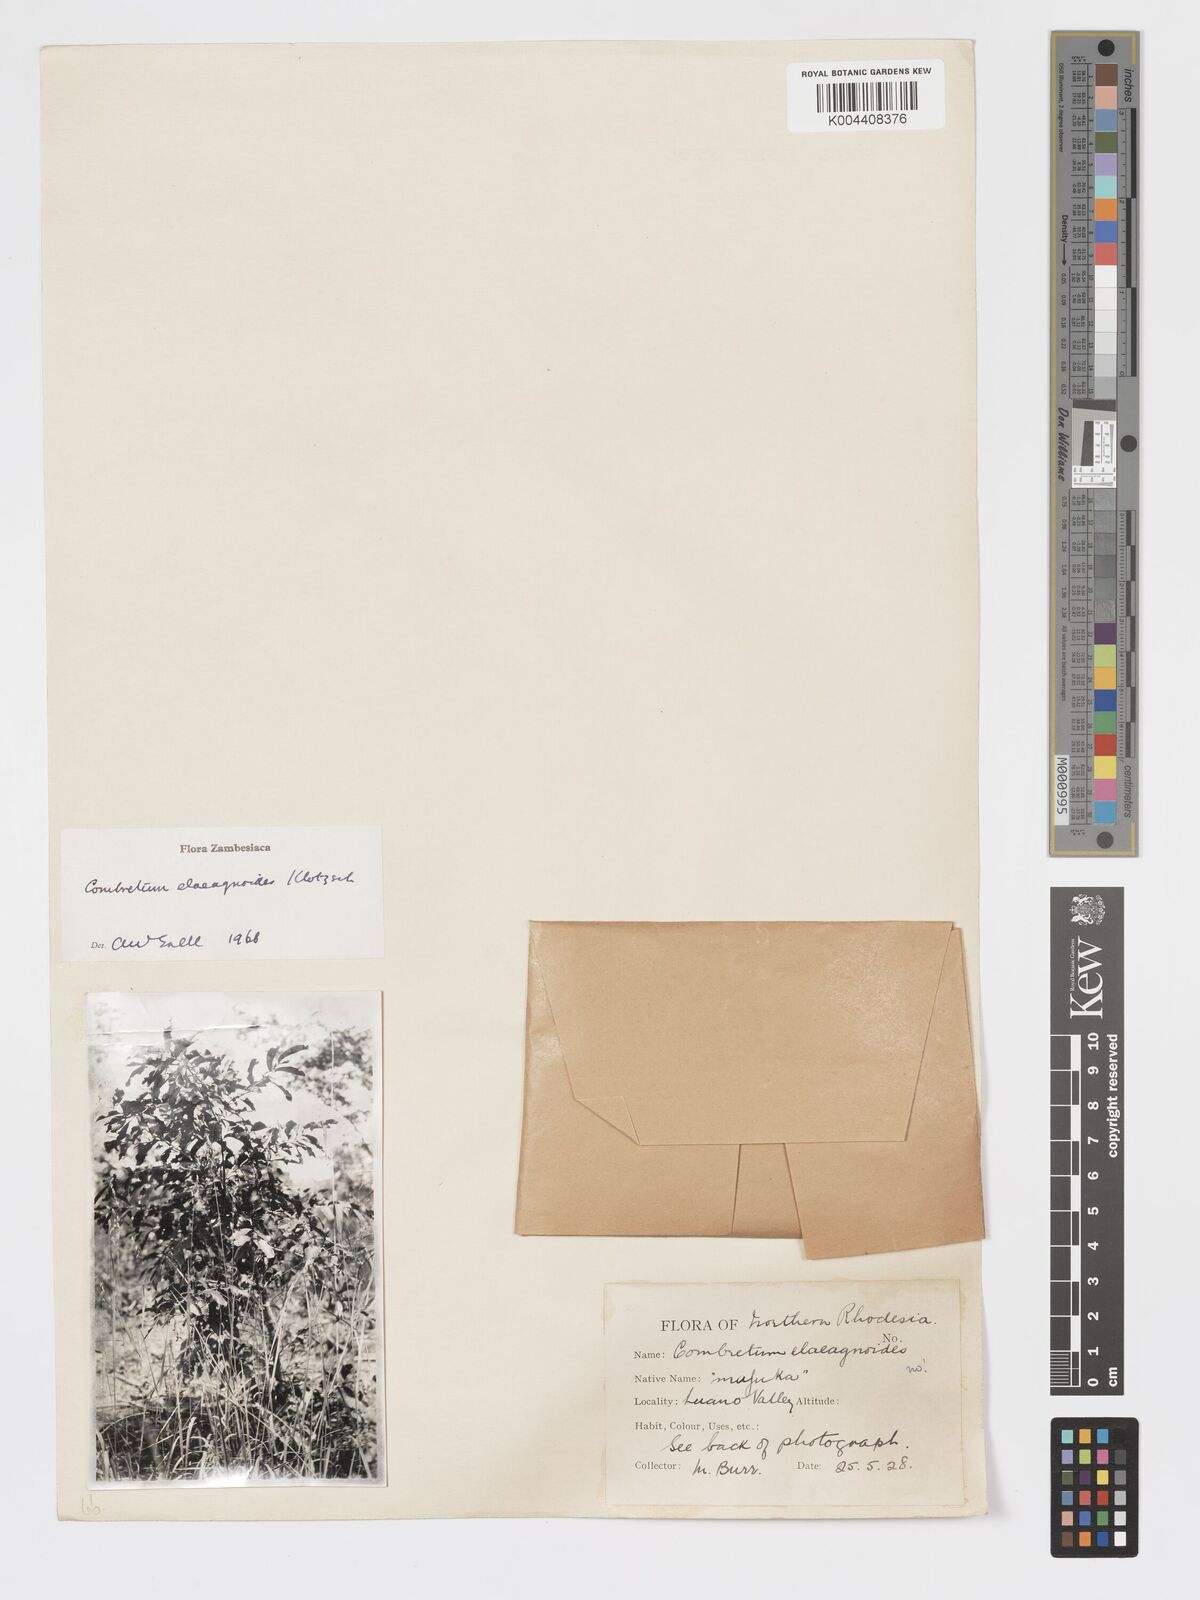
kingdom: Plantae
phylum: Tracheophyta
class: Magnoliopsida
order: Myrtales
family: Combretaceae
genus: Combretum
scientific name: Combretum elaeagnoides
